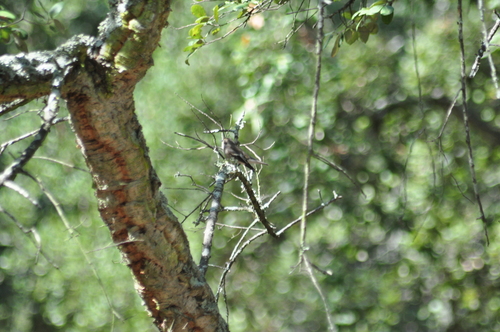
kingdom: Animalia
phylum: Chordata
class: Aves
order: Passeriformes
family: Muscicapidae
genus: Ficedula
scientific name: Ficedula hypoleuca
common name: European pied flycatcher
